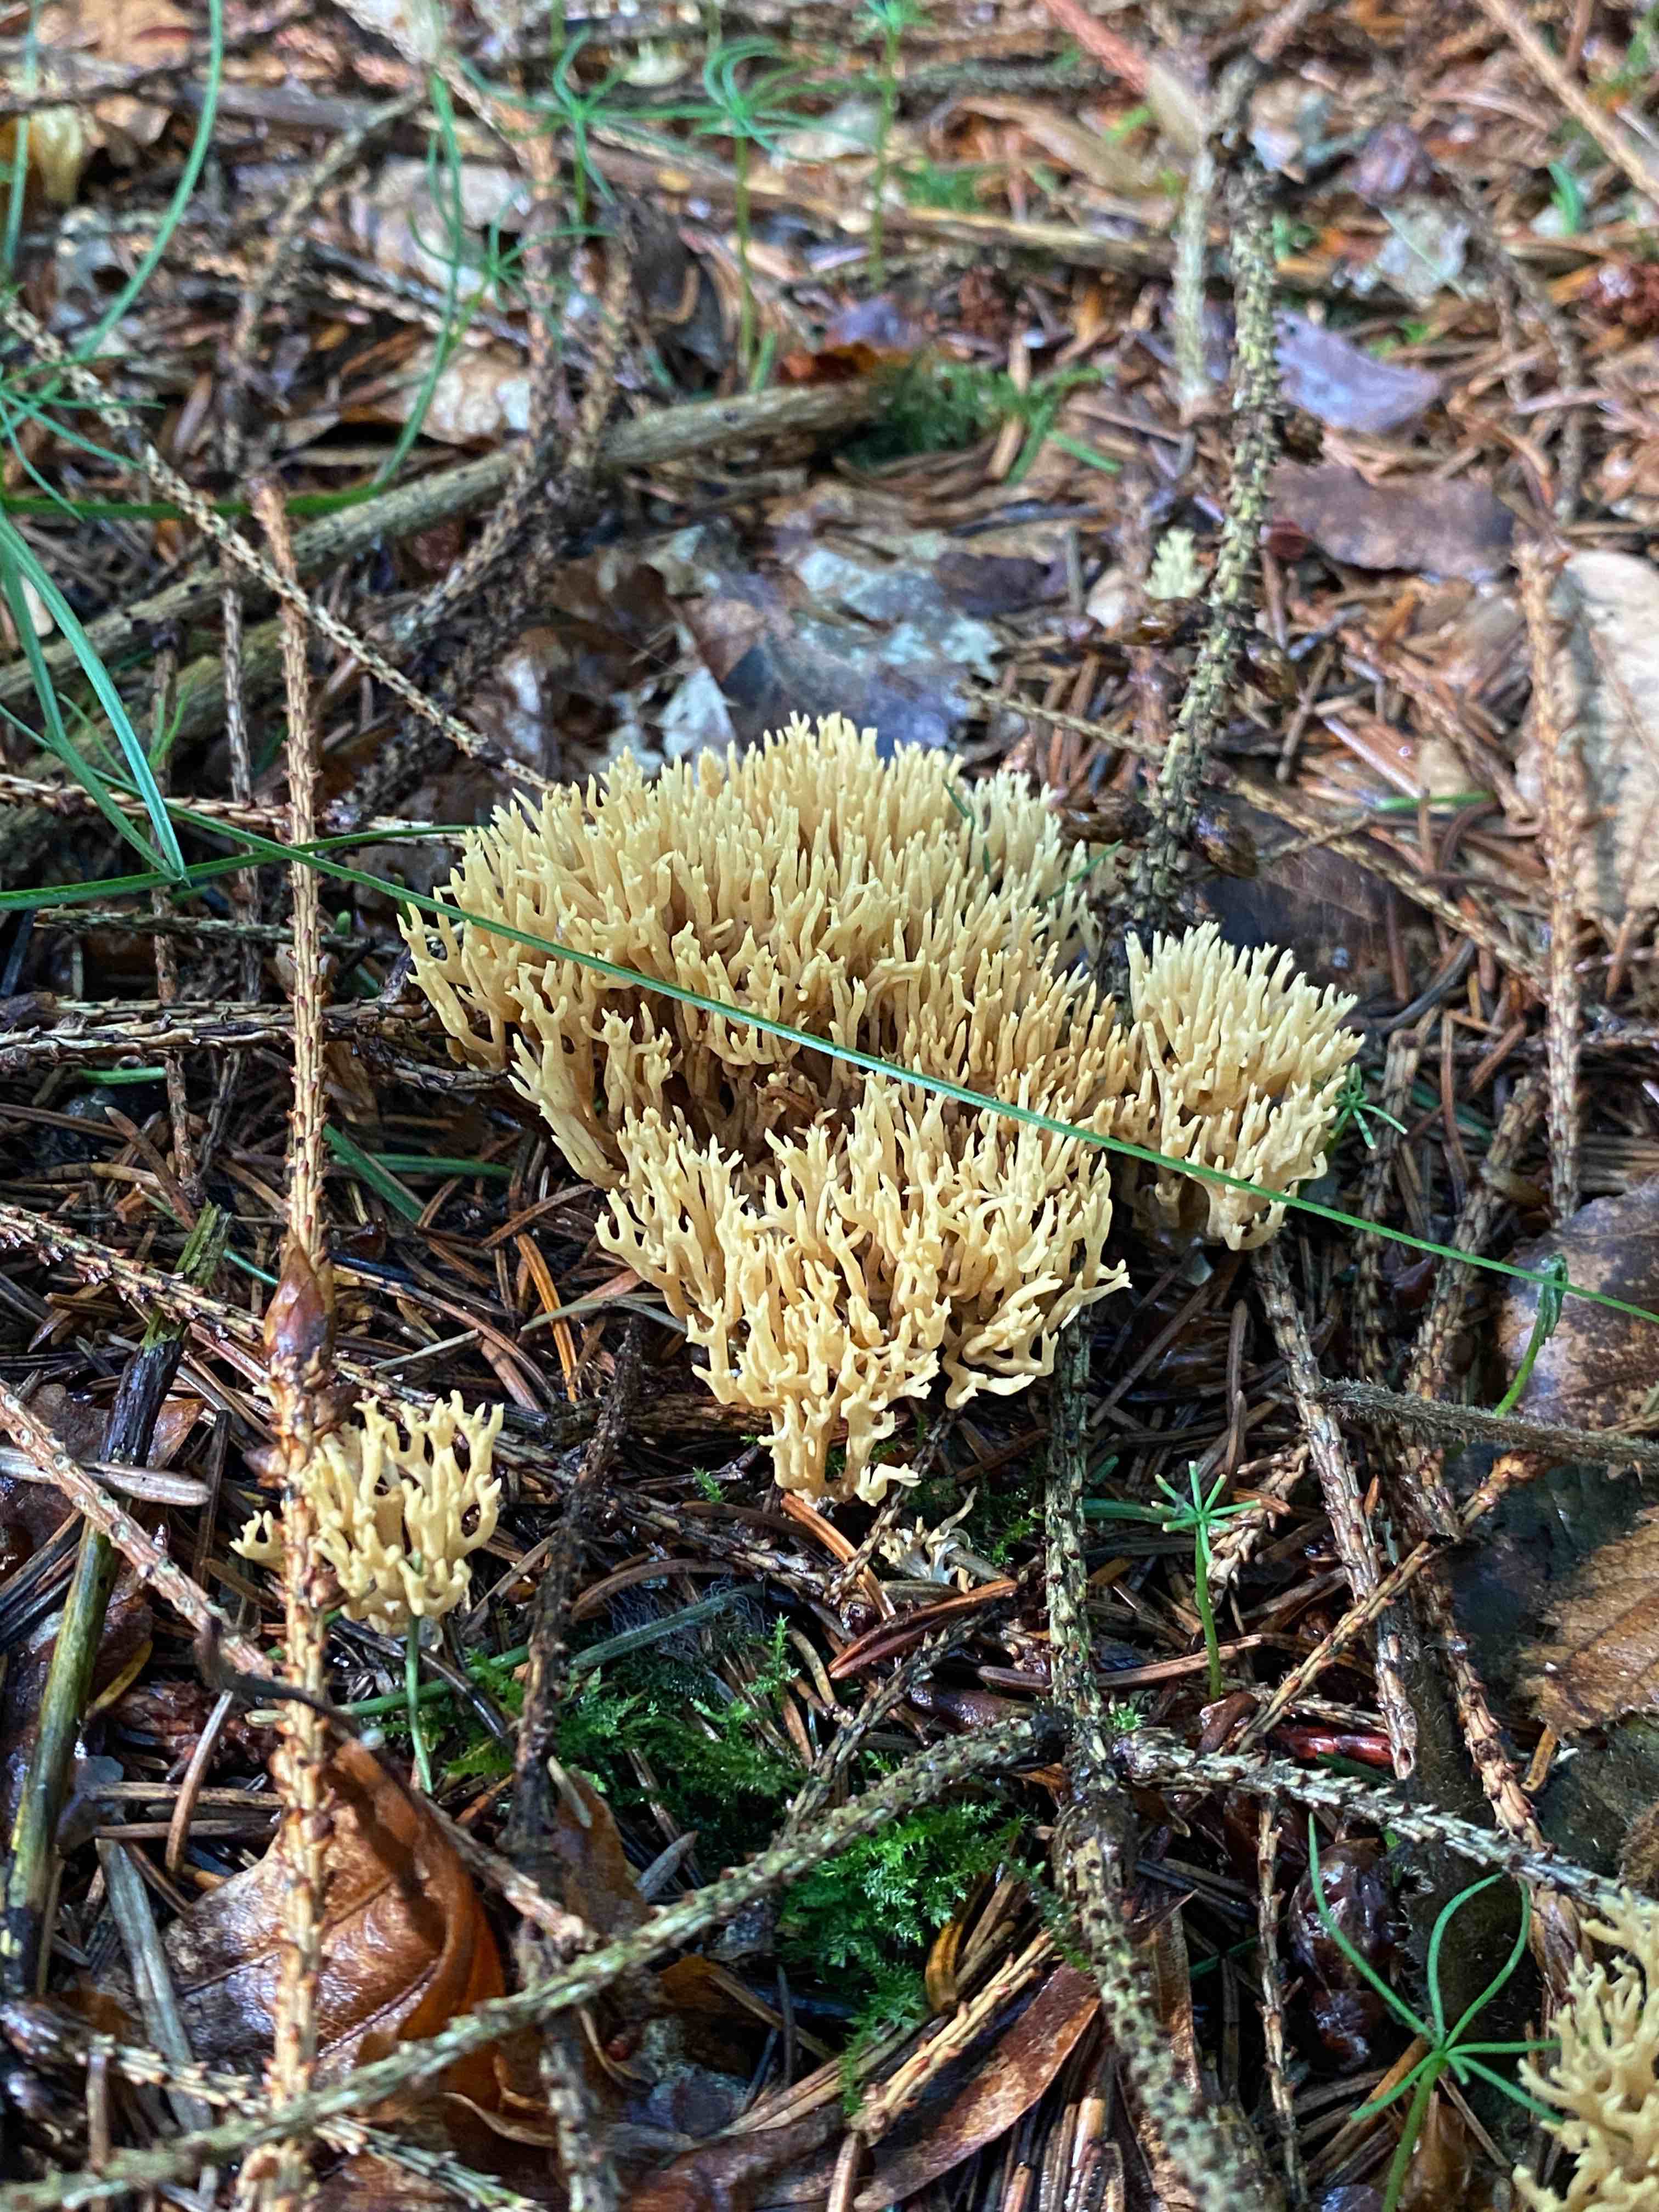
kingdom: Fungi
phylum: Basidiomycota
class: Agaricomycetes
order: Gomphales
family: Gomphaceae
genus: Phaeoclavulina
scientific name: Phaeoclavulina eumorpha
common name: gran-koralsvamp
